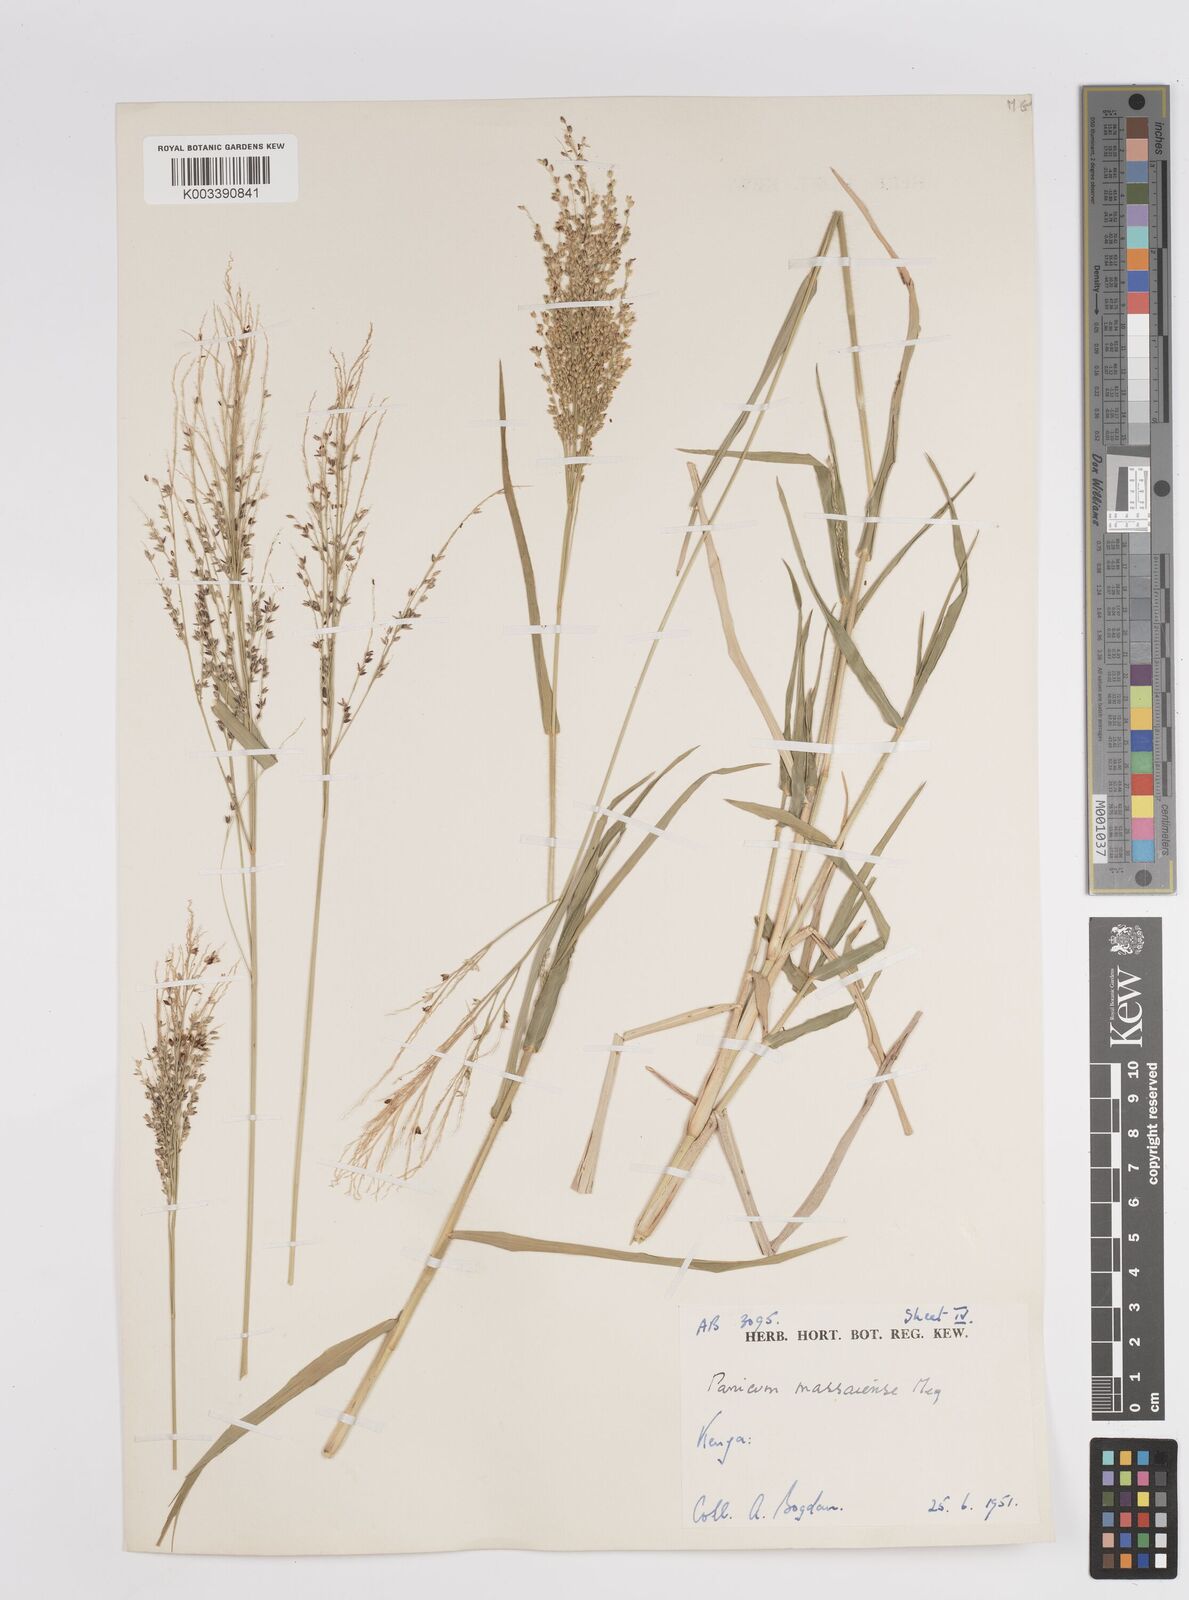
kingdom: Plantae
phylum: Tracheophyta
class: Liliopsida
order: Poales
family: Poaceae
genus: Panicum
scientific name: Panicum coloratum
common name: Kleingrass
